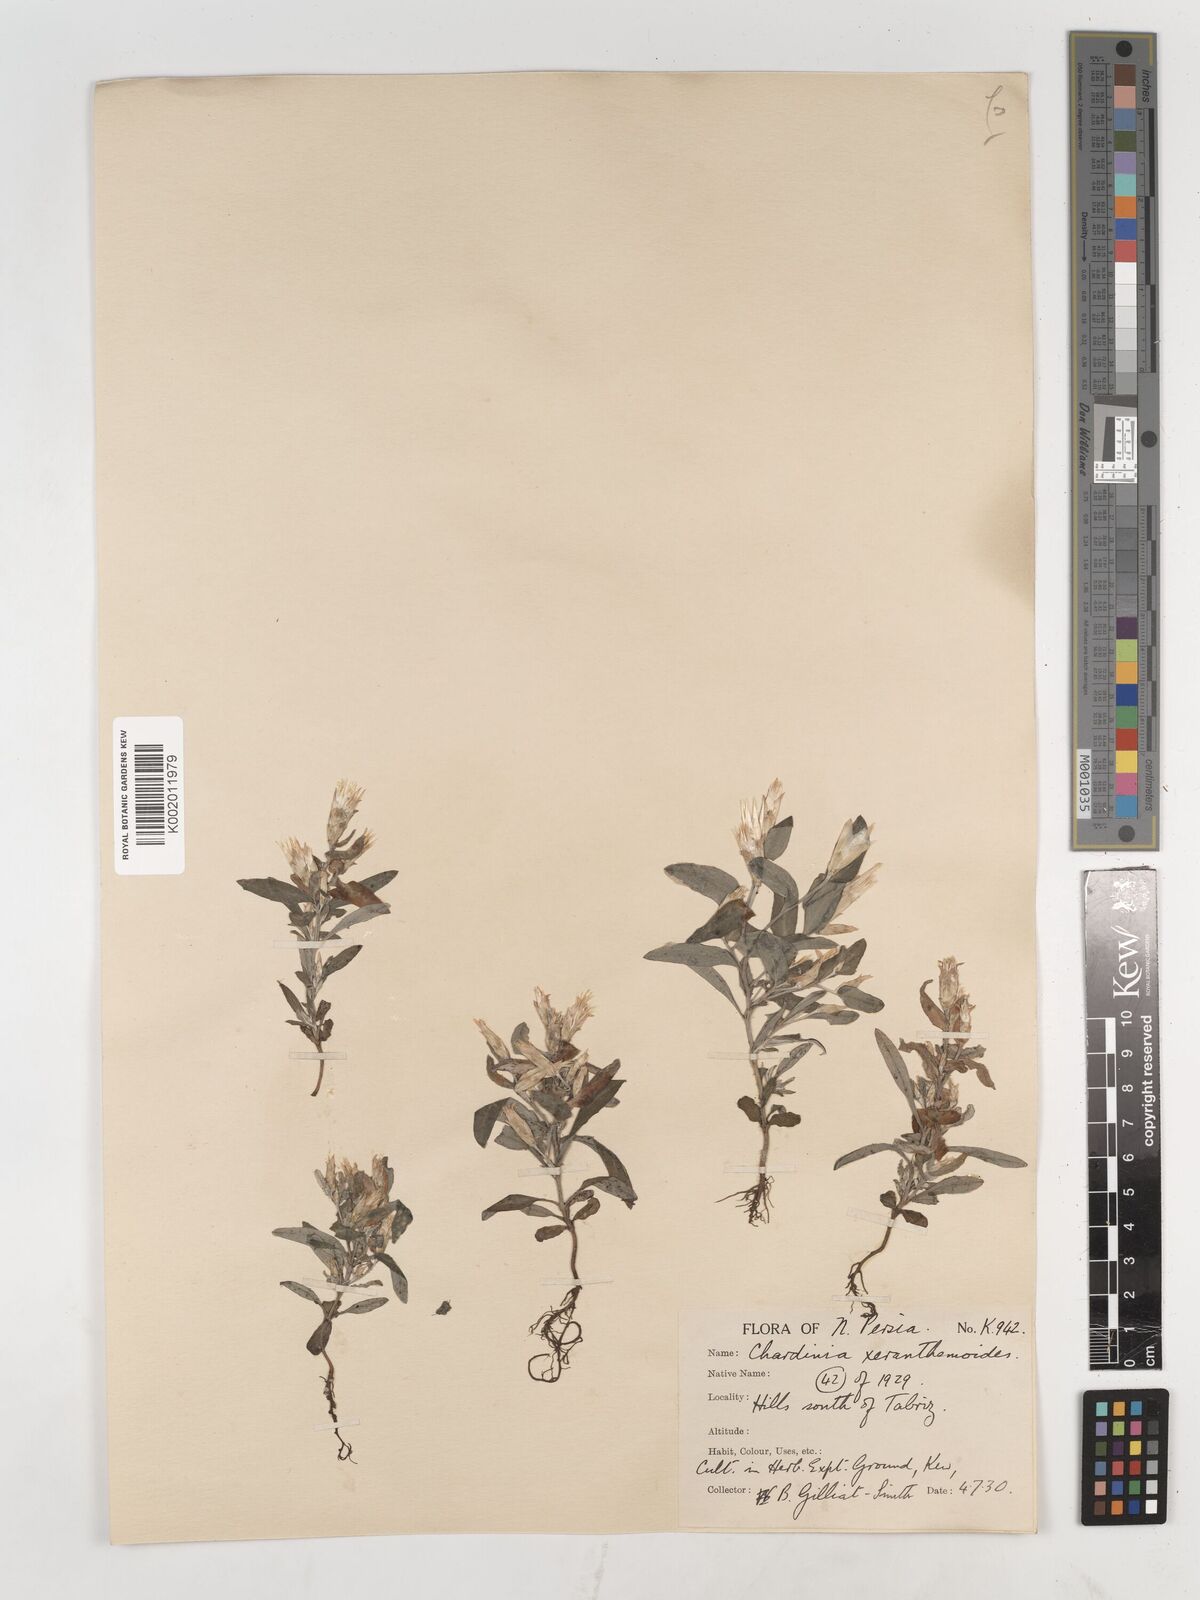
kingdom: Plantae
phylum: Tracheophyta
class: Magnoliopsida
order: Asterales
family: Asteraceae
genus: Chardinia
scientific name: Chardinia orientalis
